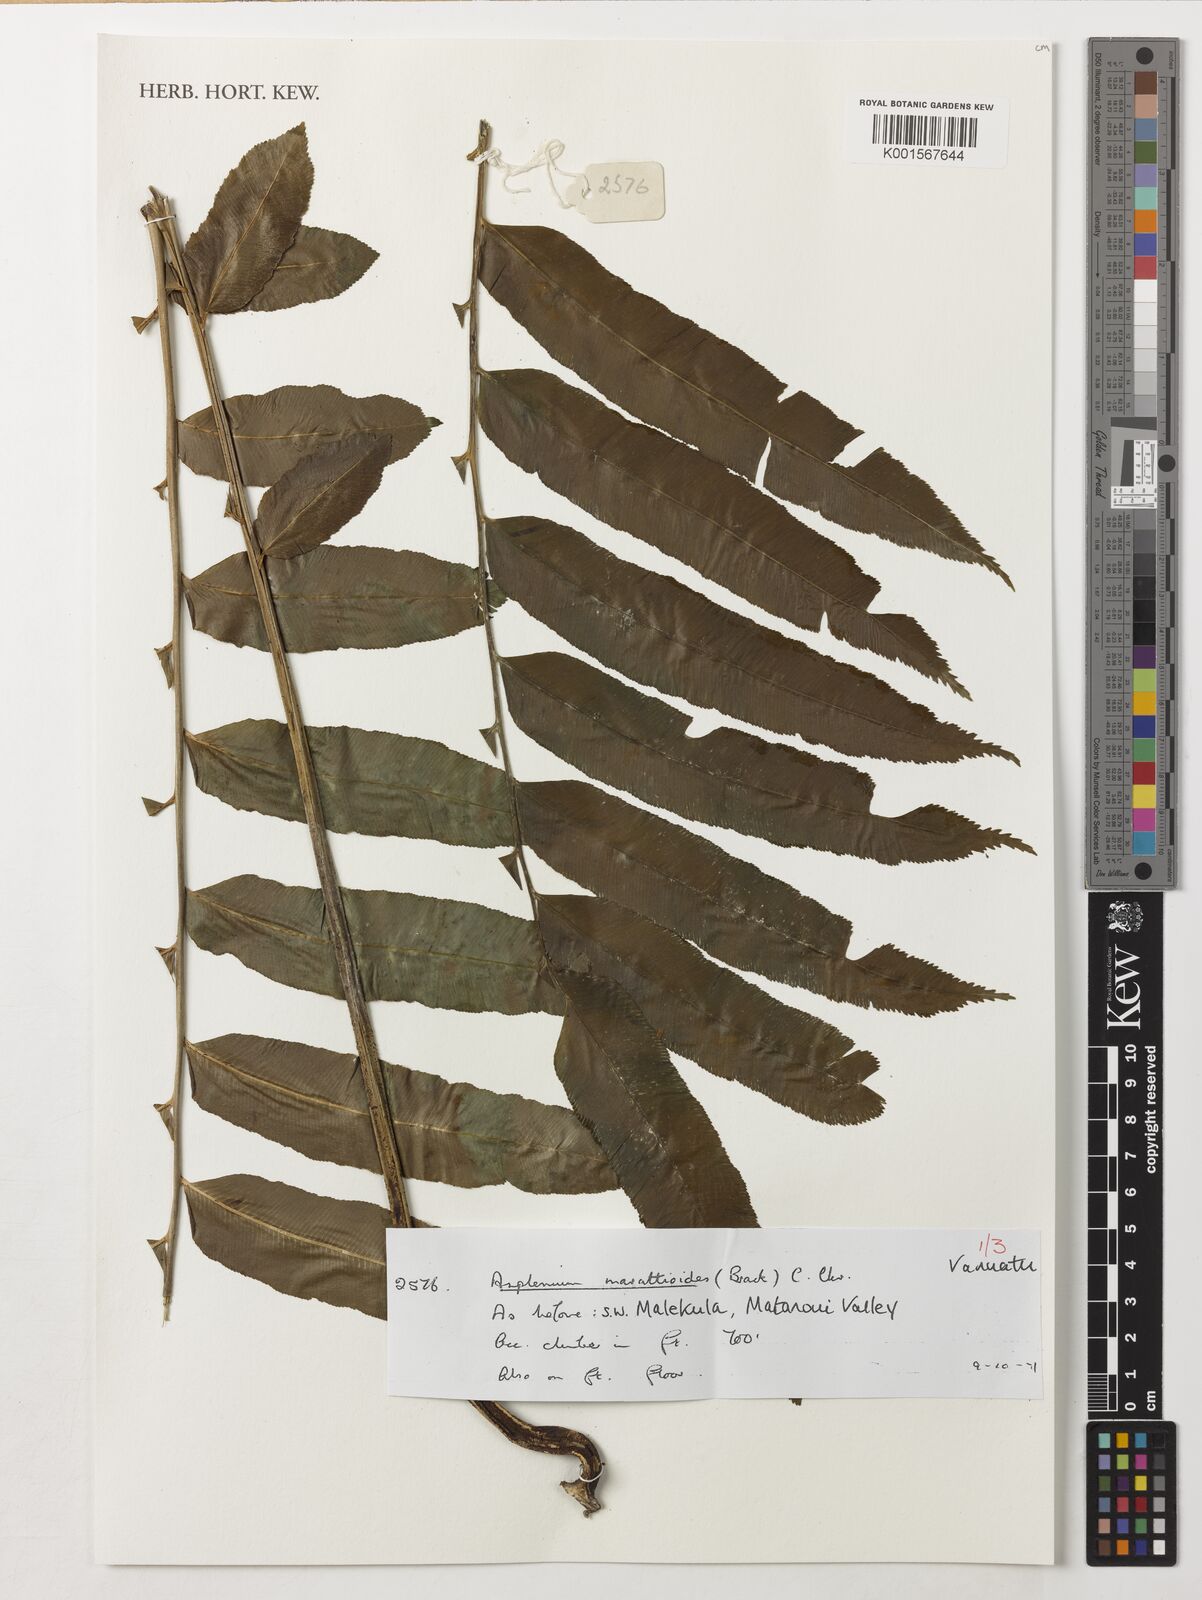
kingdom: Plantae
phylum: Tracheophyta
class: Polypodiopsida
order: Polypodiales
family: Aspleniaceae
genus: Asplenium
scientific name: Asplenium marattioides
